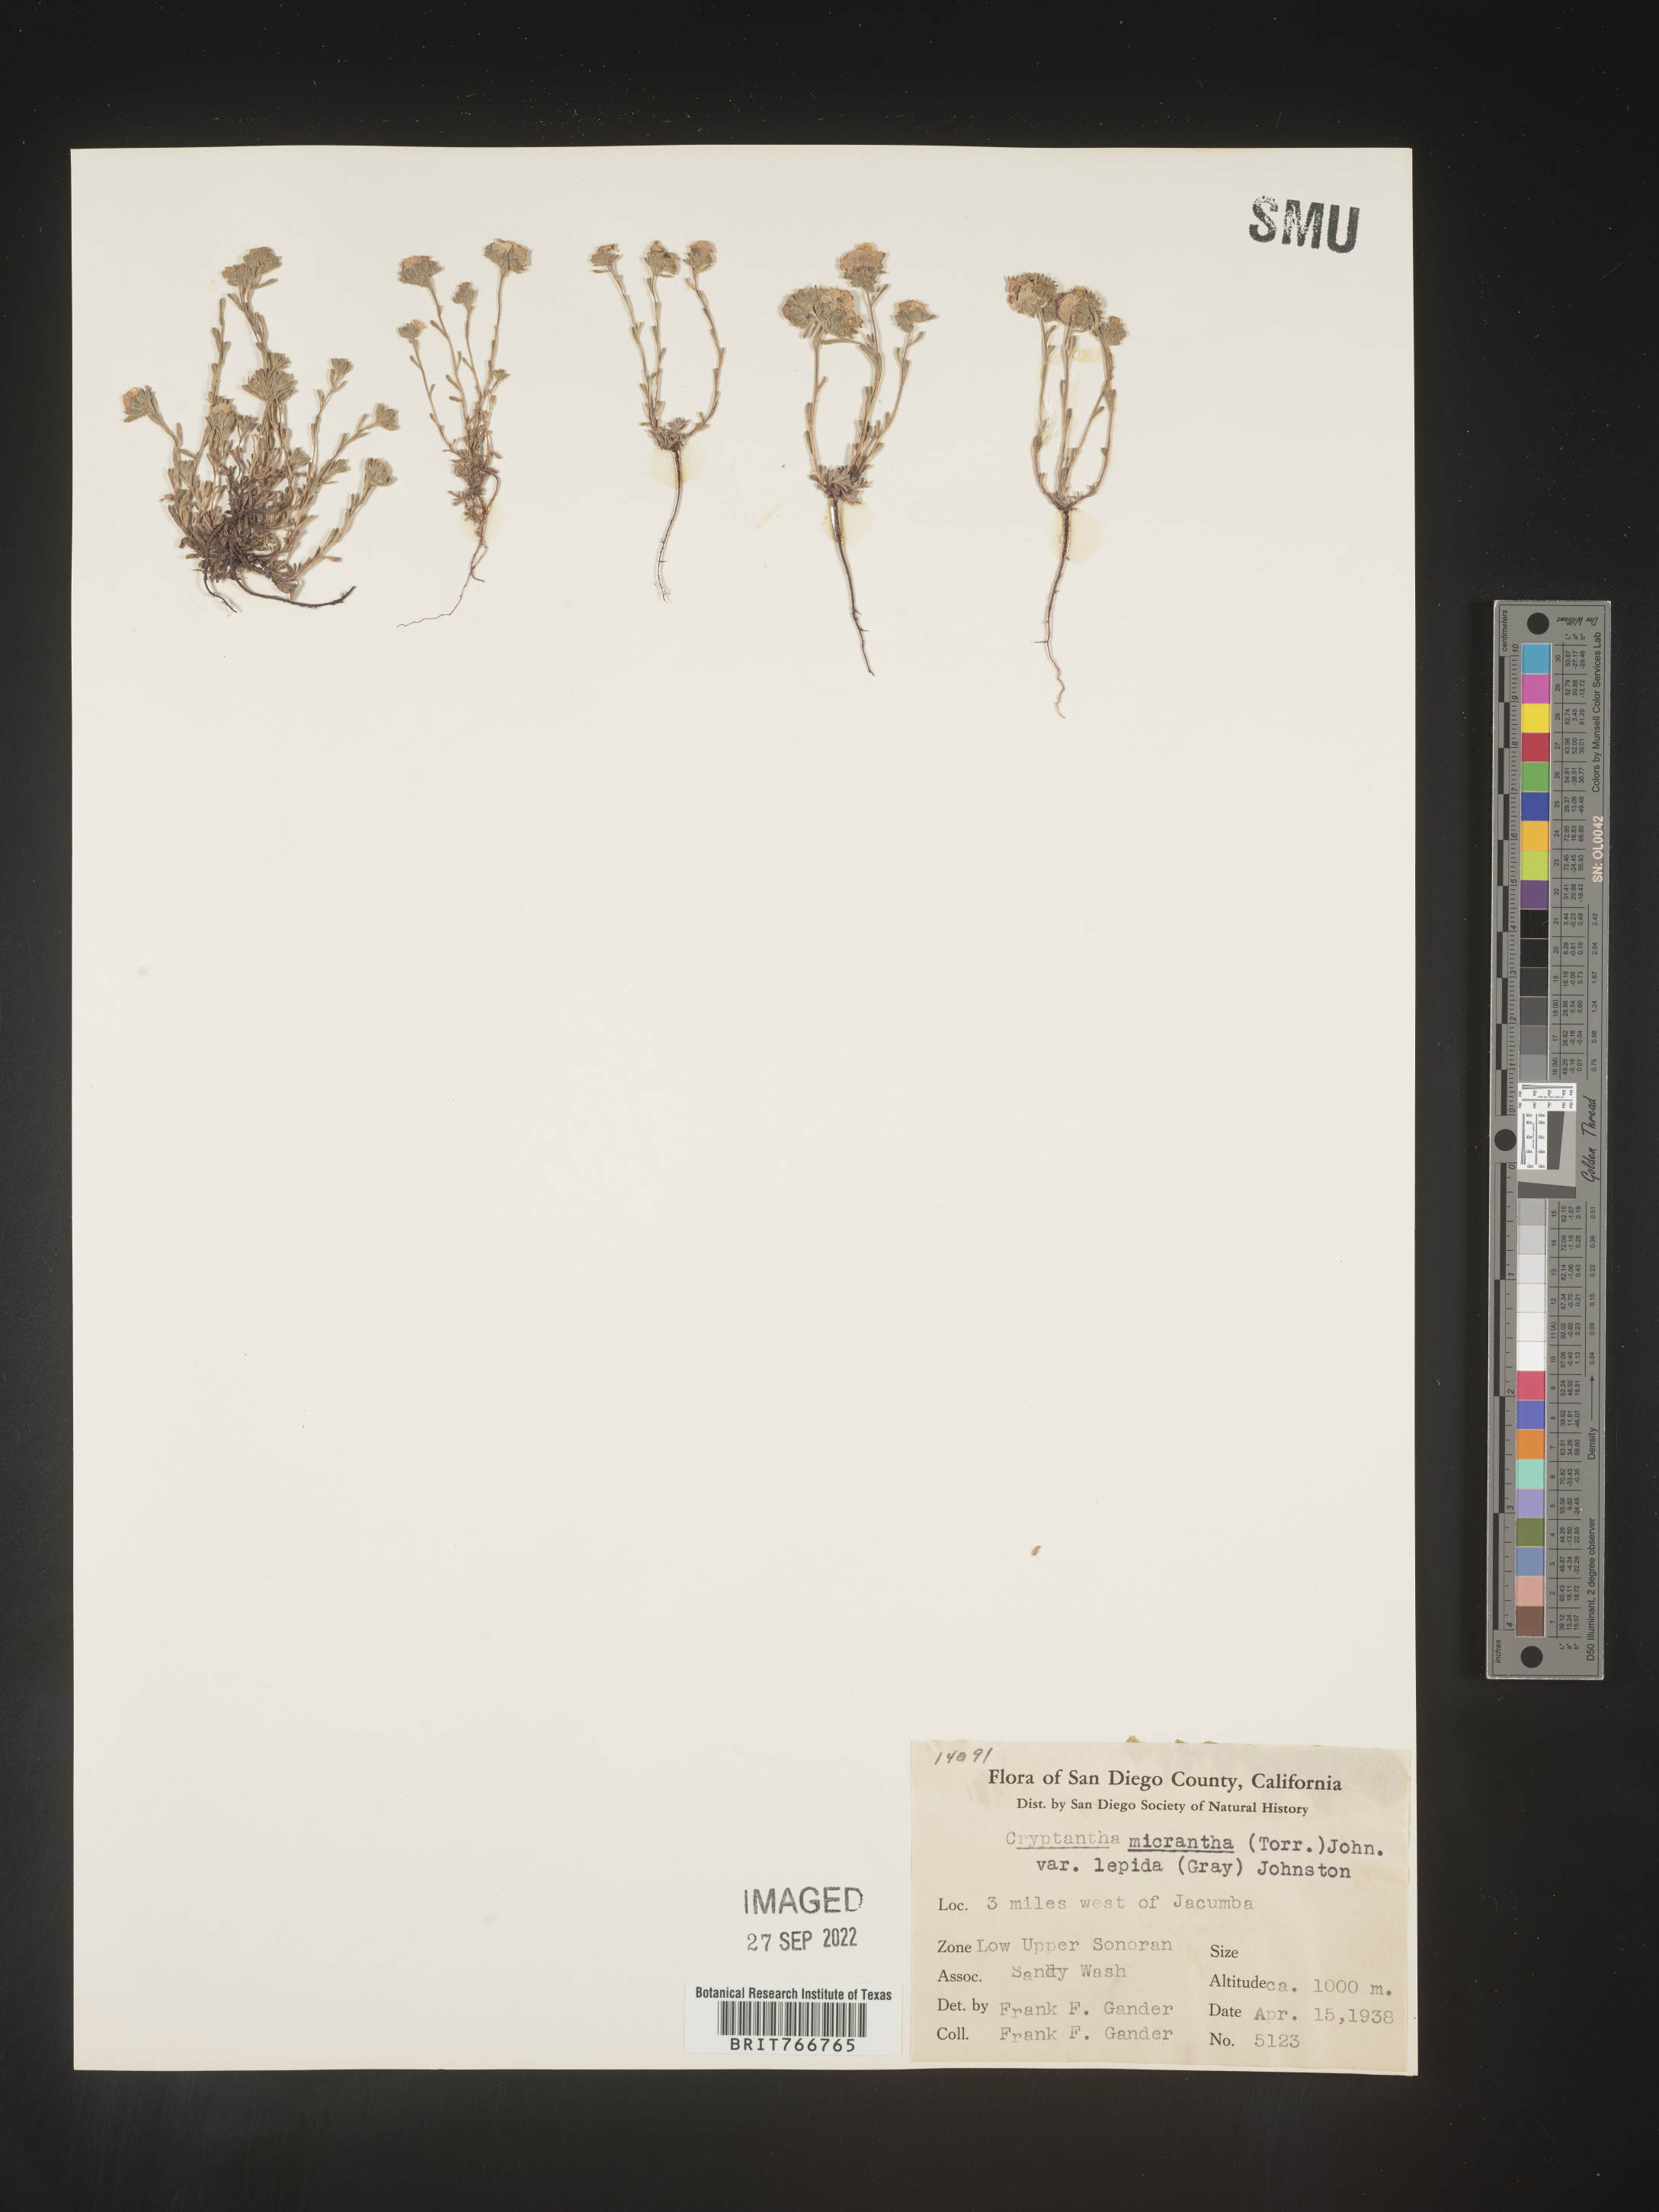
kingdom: Plantae
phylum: Tracheophyta
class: Magnoliopsida
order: Boraginales
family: Boraginaceae
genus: Cryptantha
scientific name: Cryptantha
